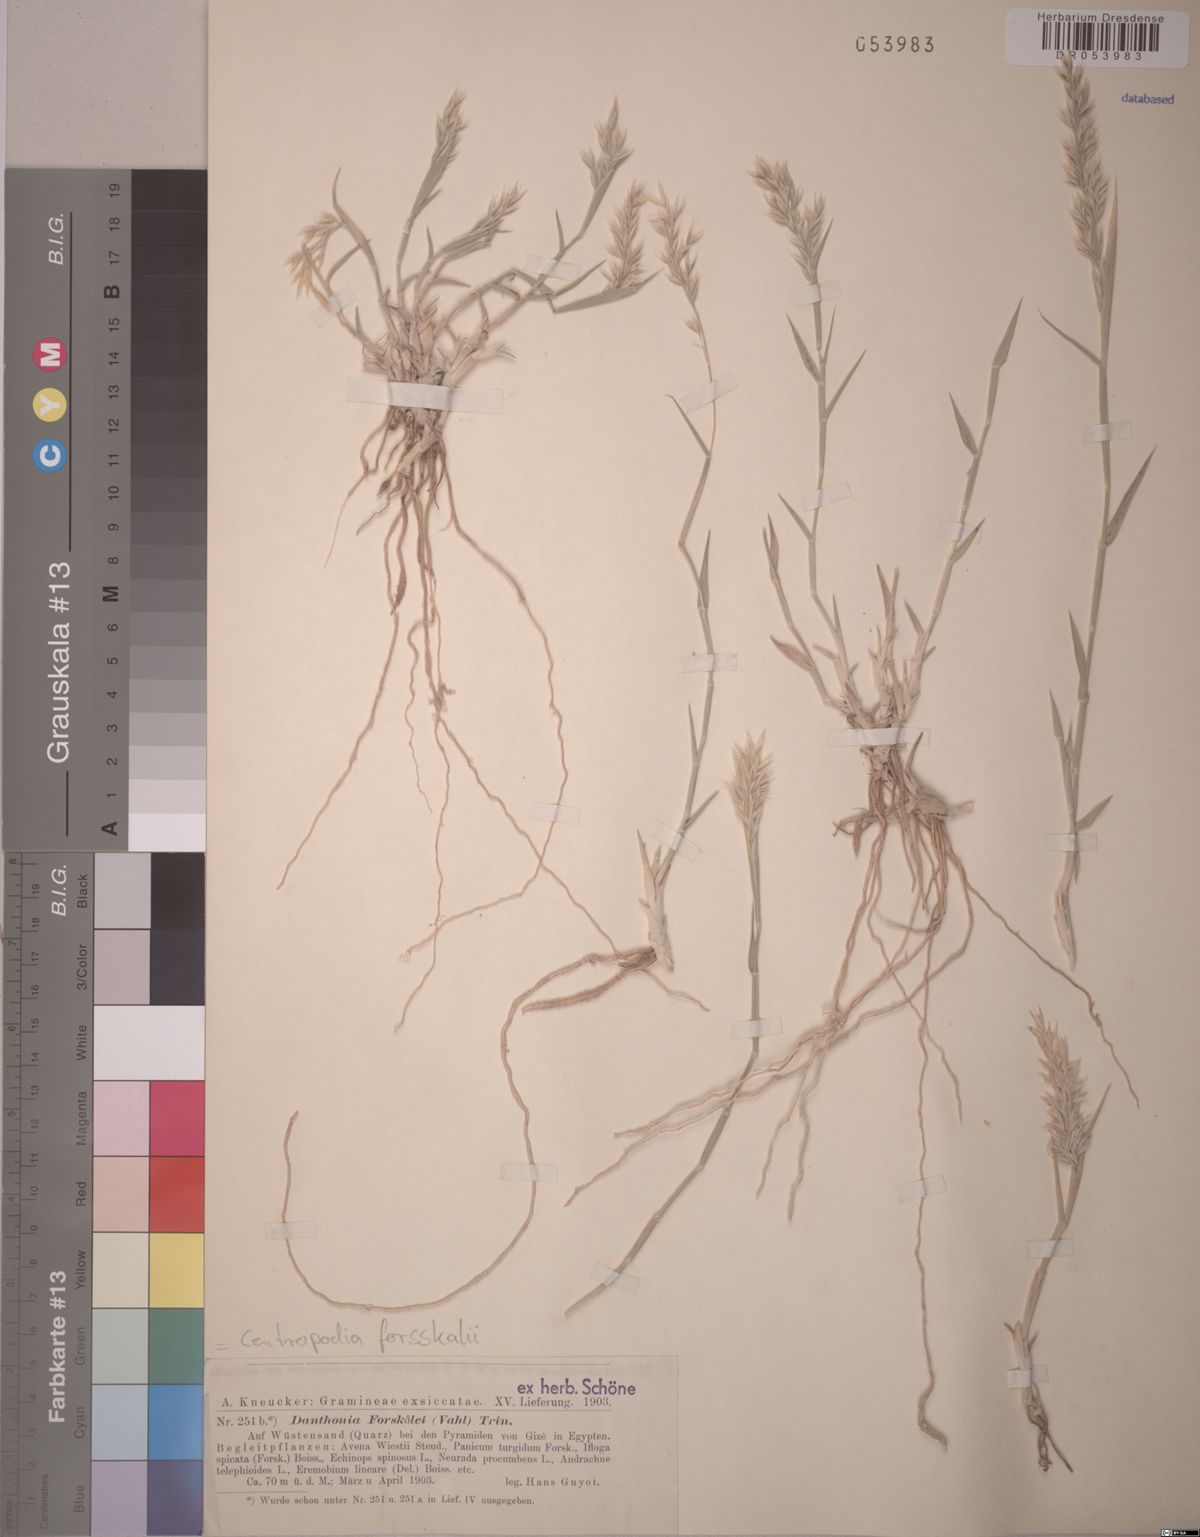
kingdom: Plantae
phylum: Tracheophyta
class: Liliopsida
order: Poales
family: Poaceae
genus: Centropodia
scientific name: Centropodia forsskalii
